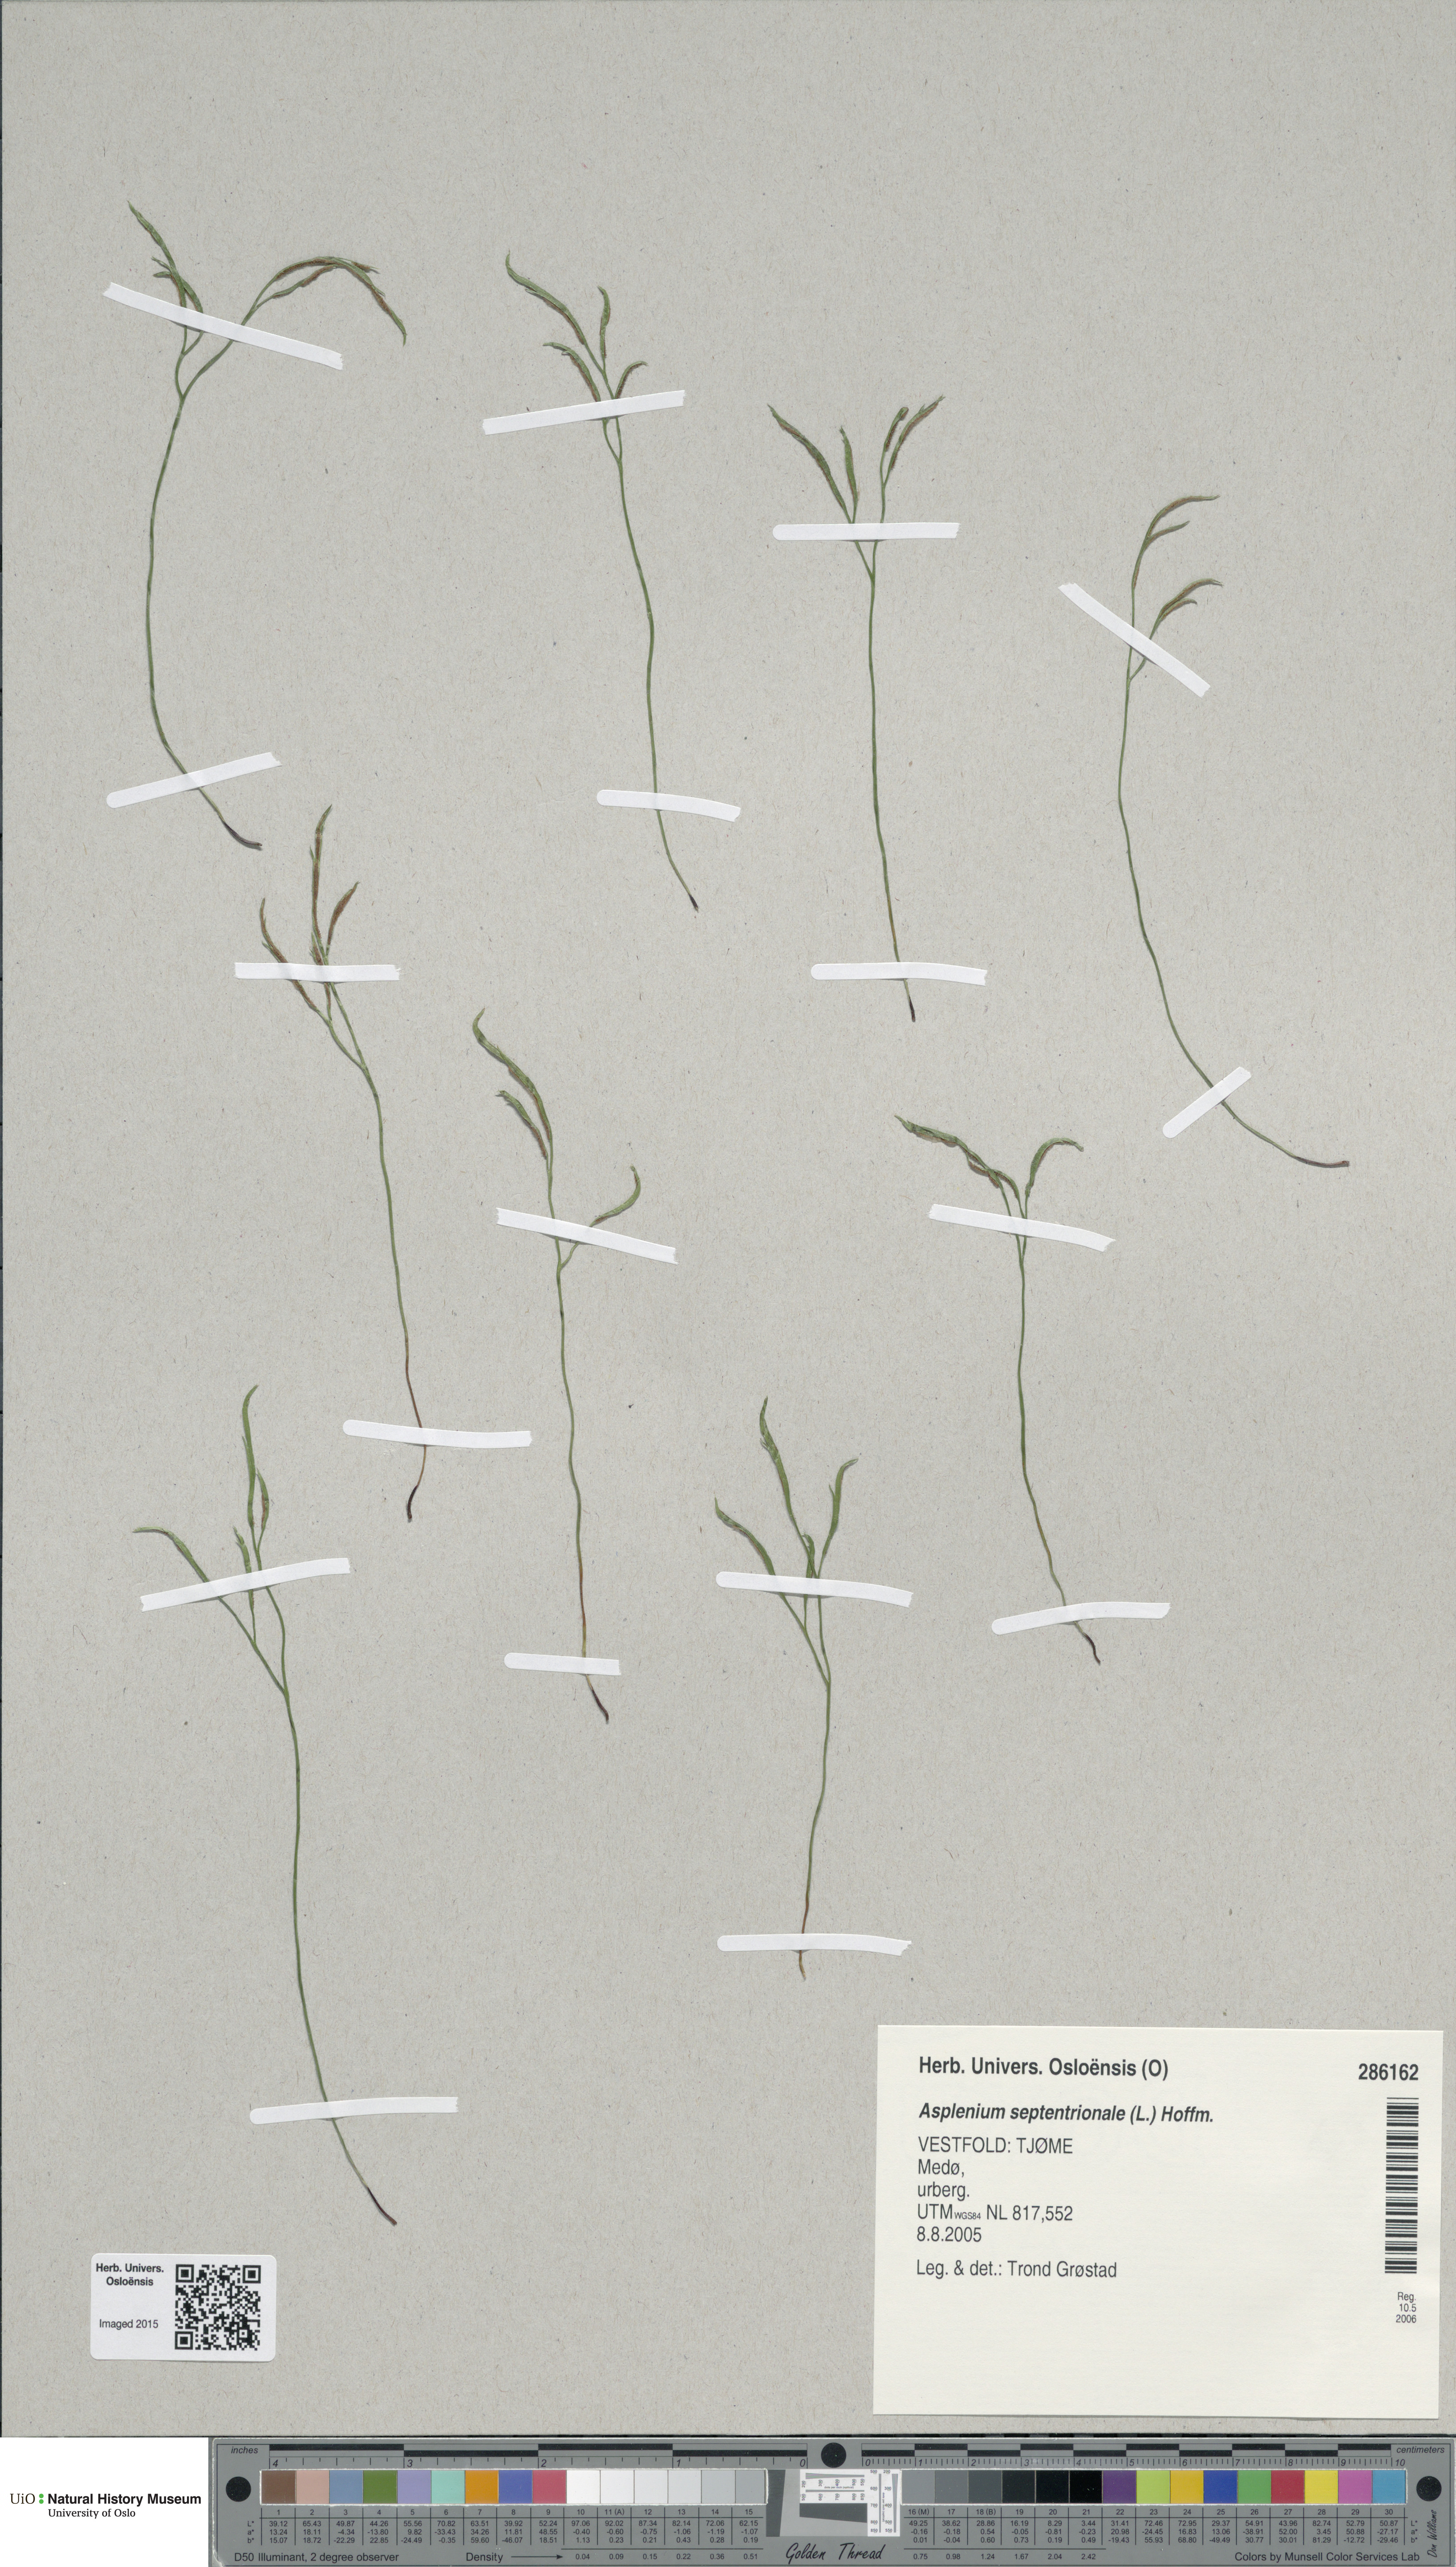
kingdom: Plantae
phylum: Tracheophyta
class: Polypodiopsida
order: Polypodiales
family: Aspleniaceae
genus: Asplenium
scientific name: Asplenium septentrionale
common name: Forked spleenwort
